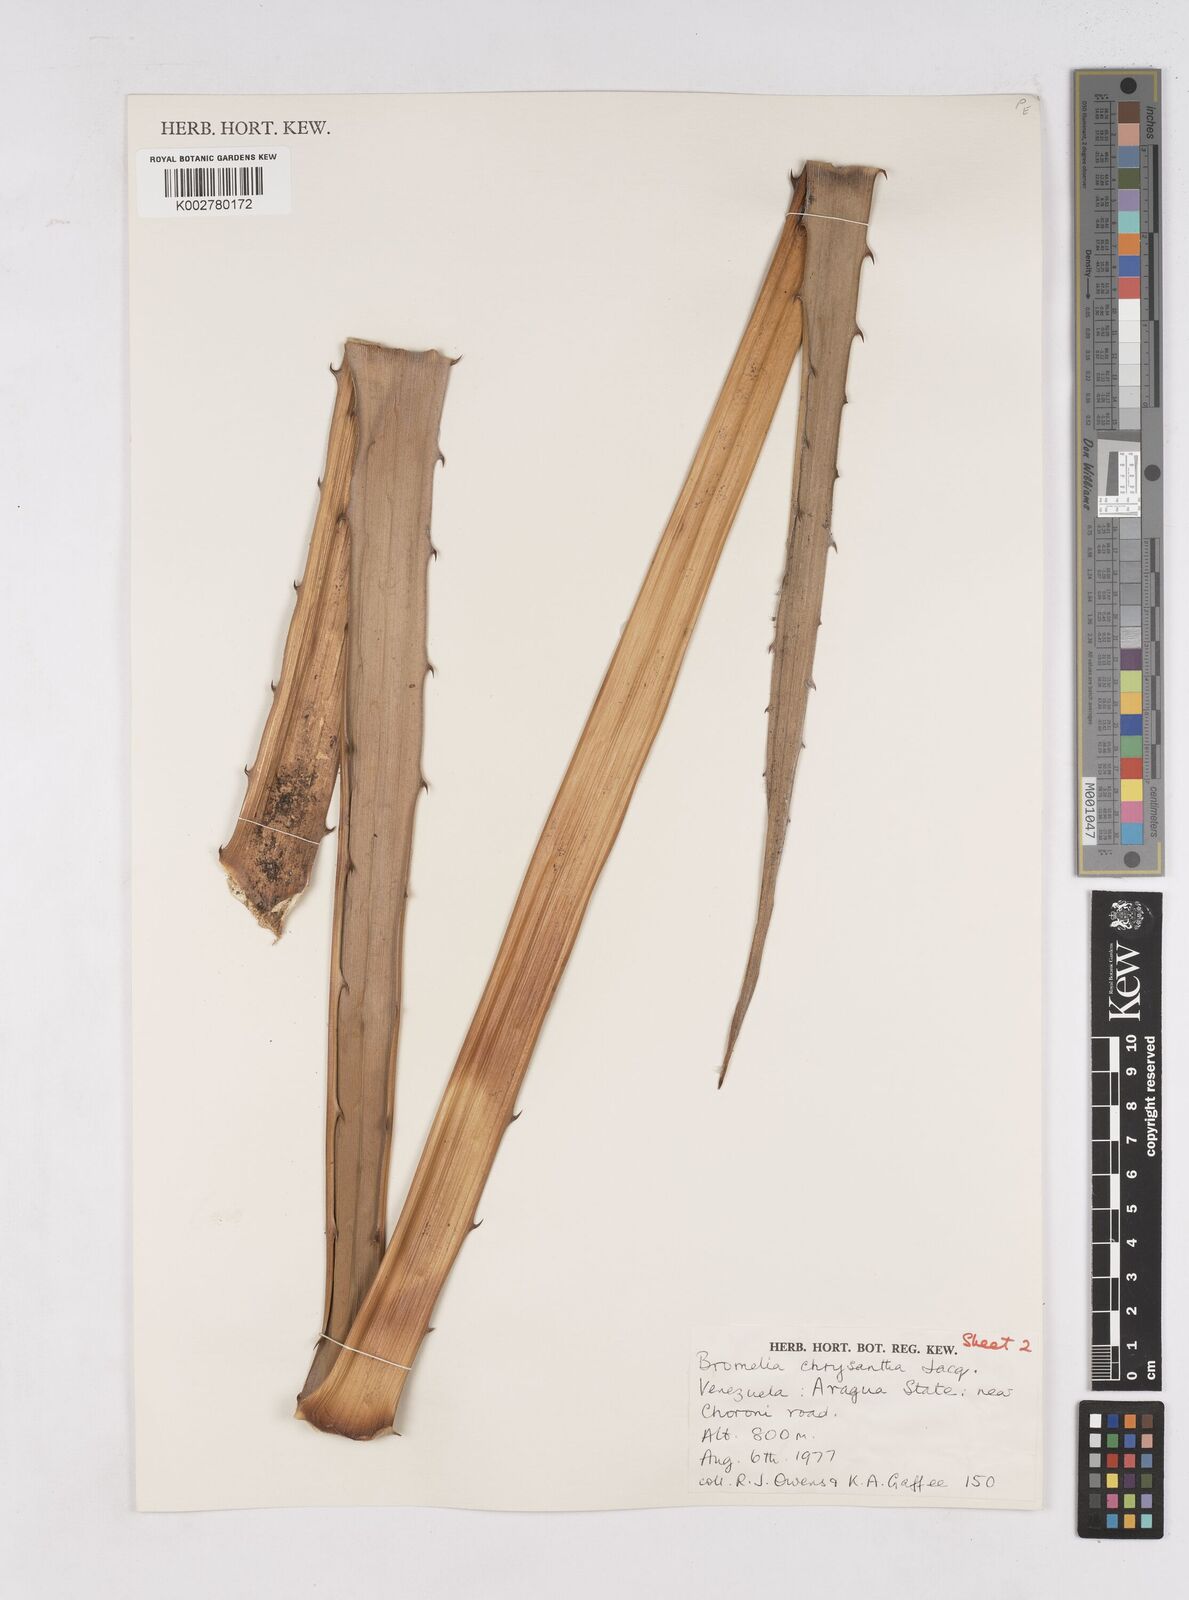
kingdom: Plantae
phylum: Tracheophyta
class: Liliopsida
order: Poales
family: Bromeliaceae
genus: Bromelia
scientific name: Bromelia chrysantha
